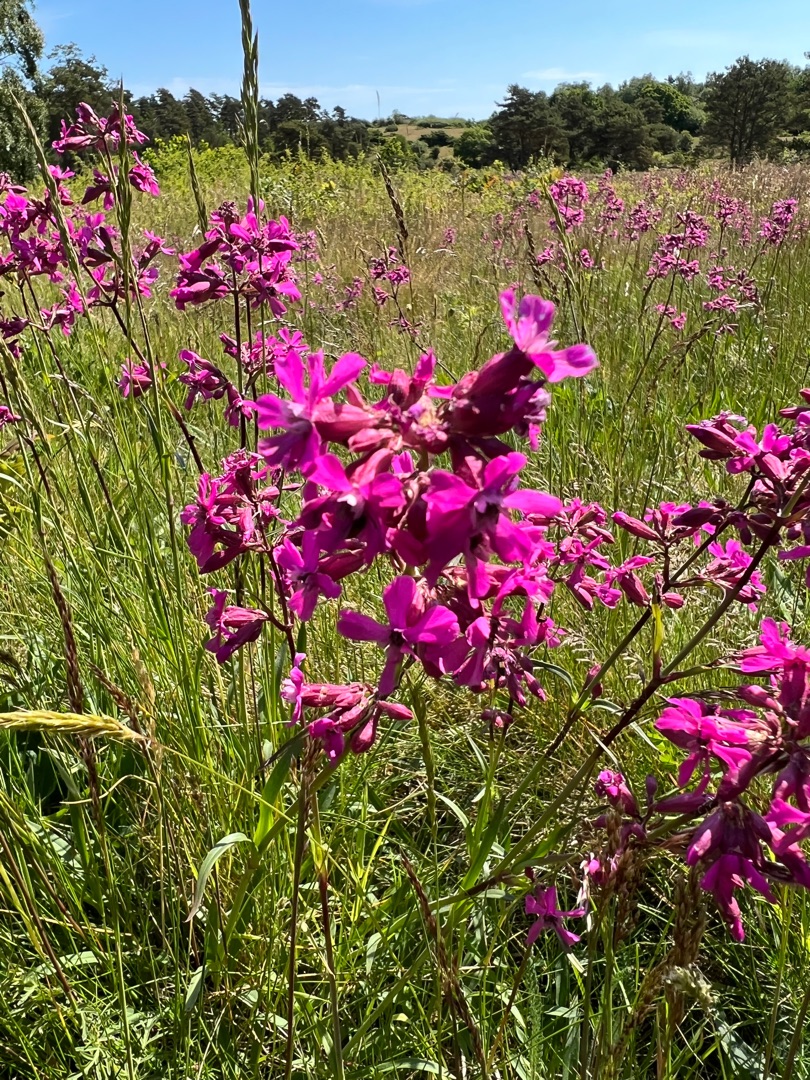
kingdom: Plantae
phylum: Tracheophyta
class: Magnoliopsida
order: Caryophyllales
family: Caryophyllaceae
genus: Viscaria
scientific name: Viscaria vulgaris
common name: Tjærenellike
